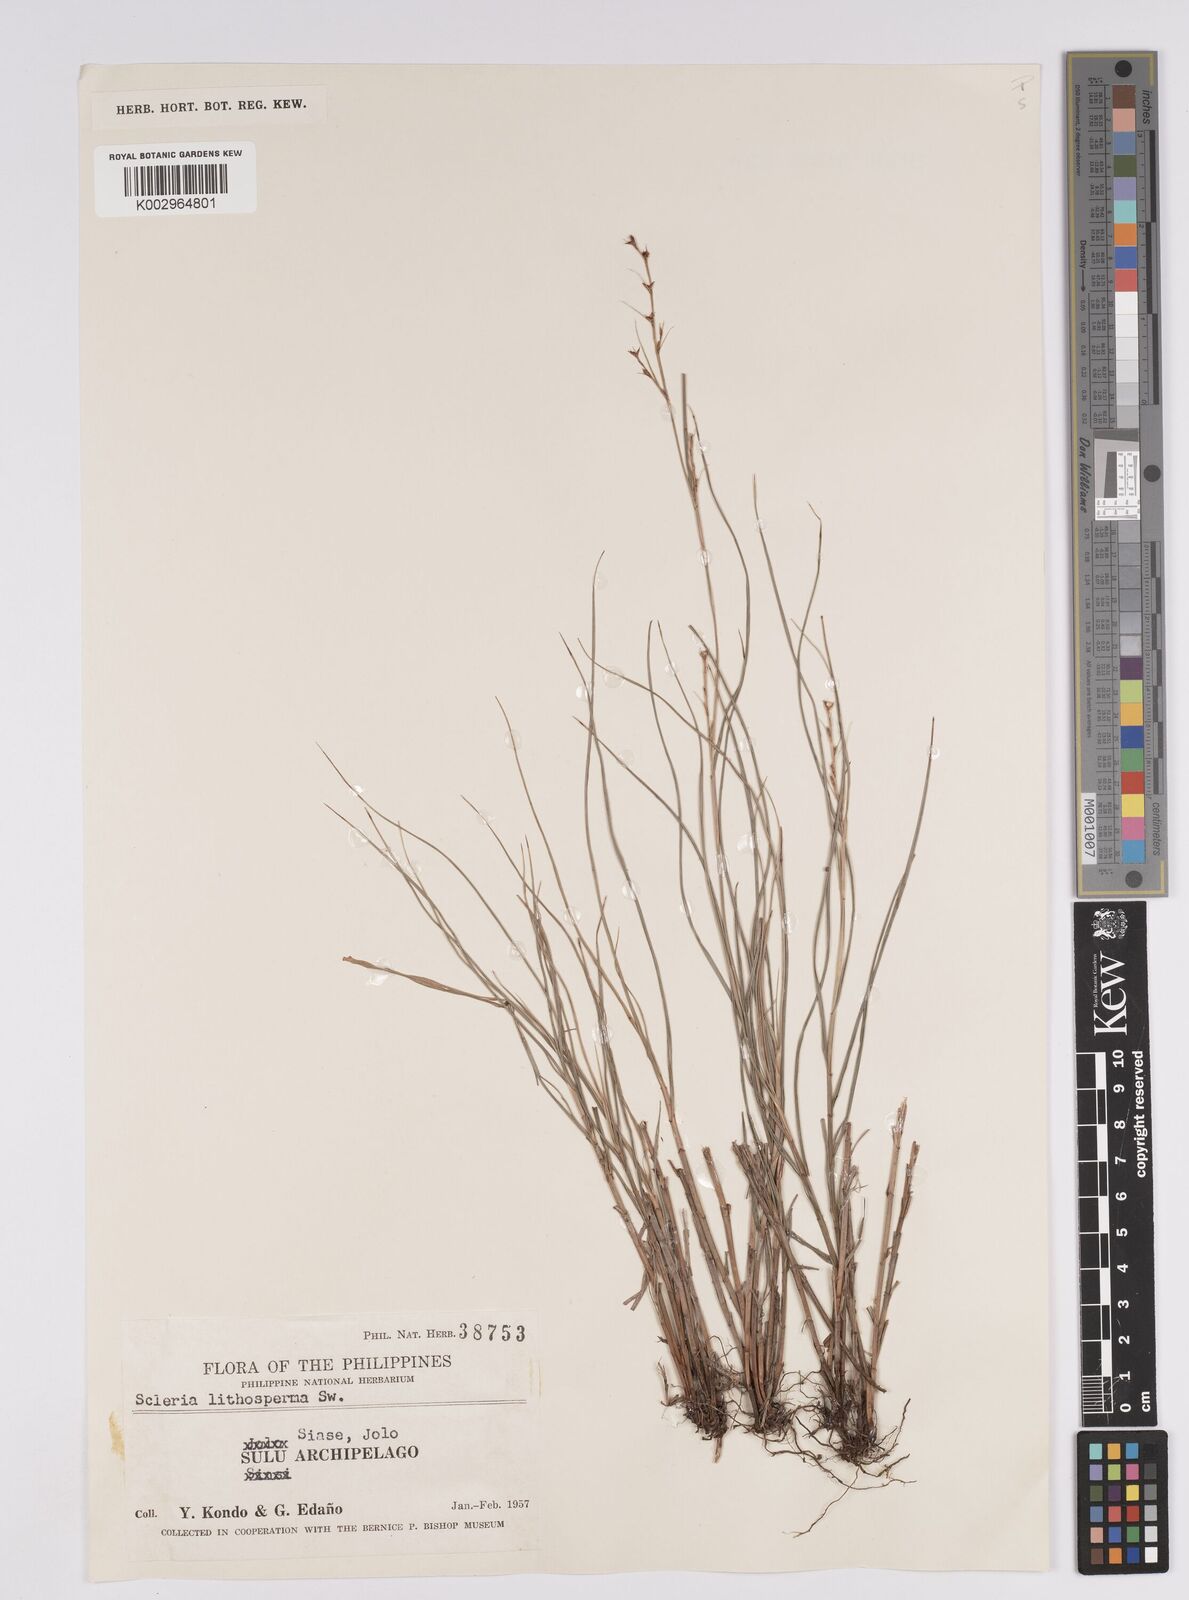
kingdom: Plantae
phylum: Tracheophyta
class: Liliopsida
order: Poales
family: Cyperaceae
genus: Scleria
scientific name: Scleria lithosperma
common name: Florida keys nut-rush
